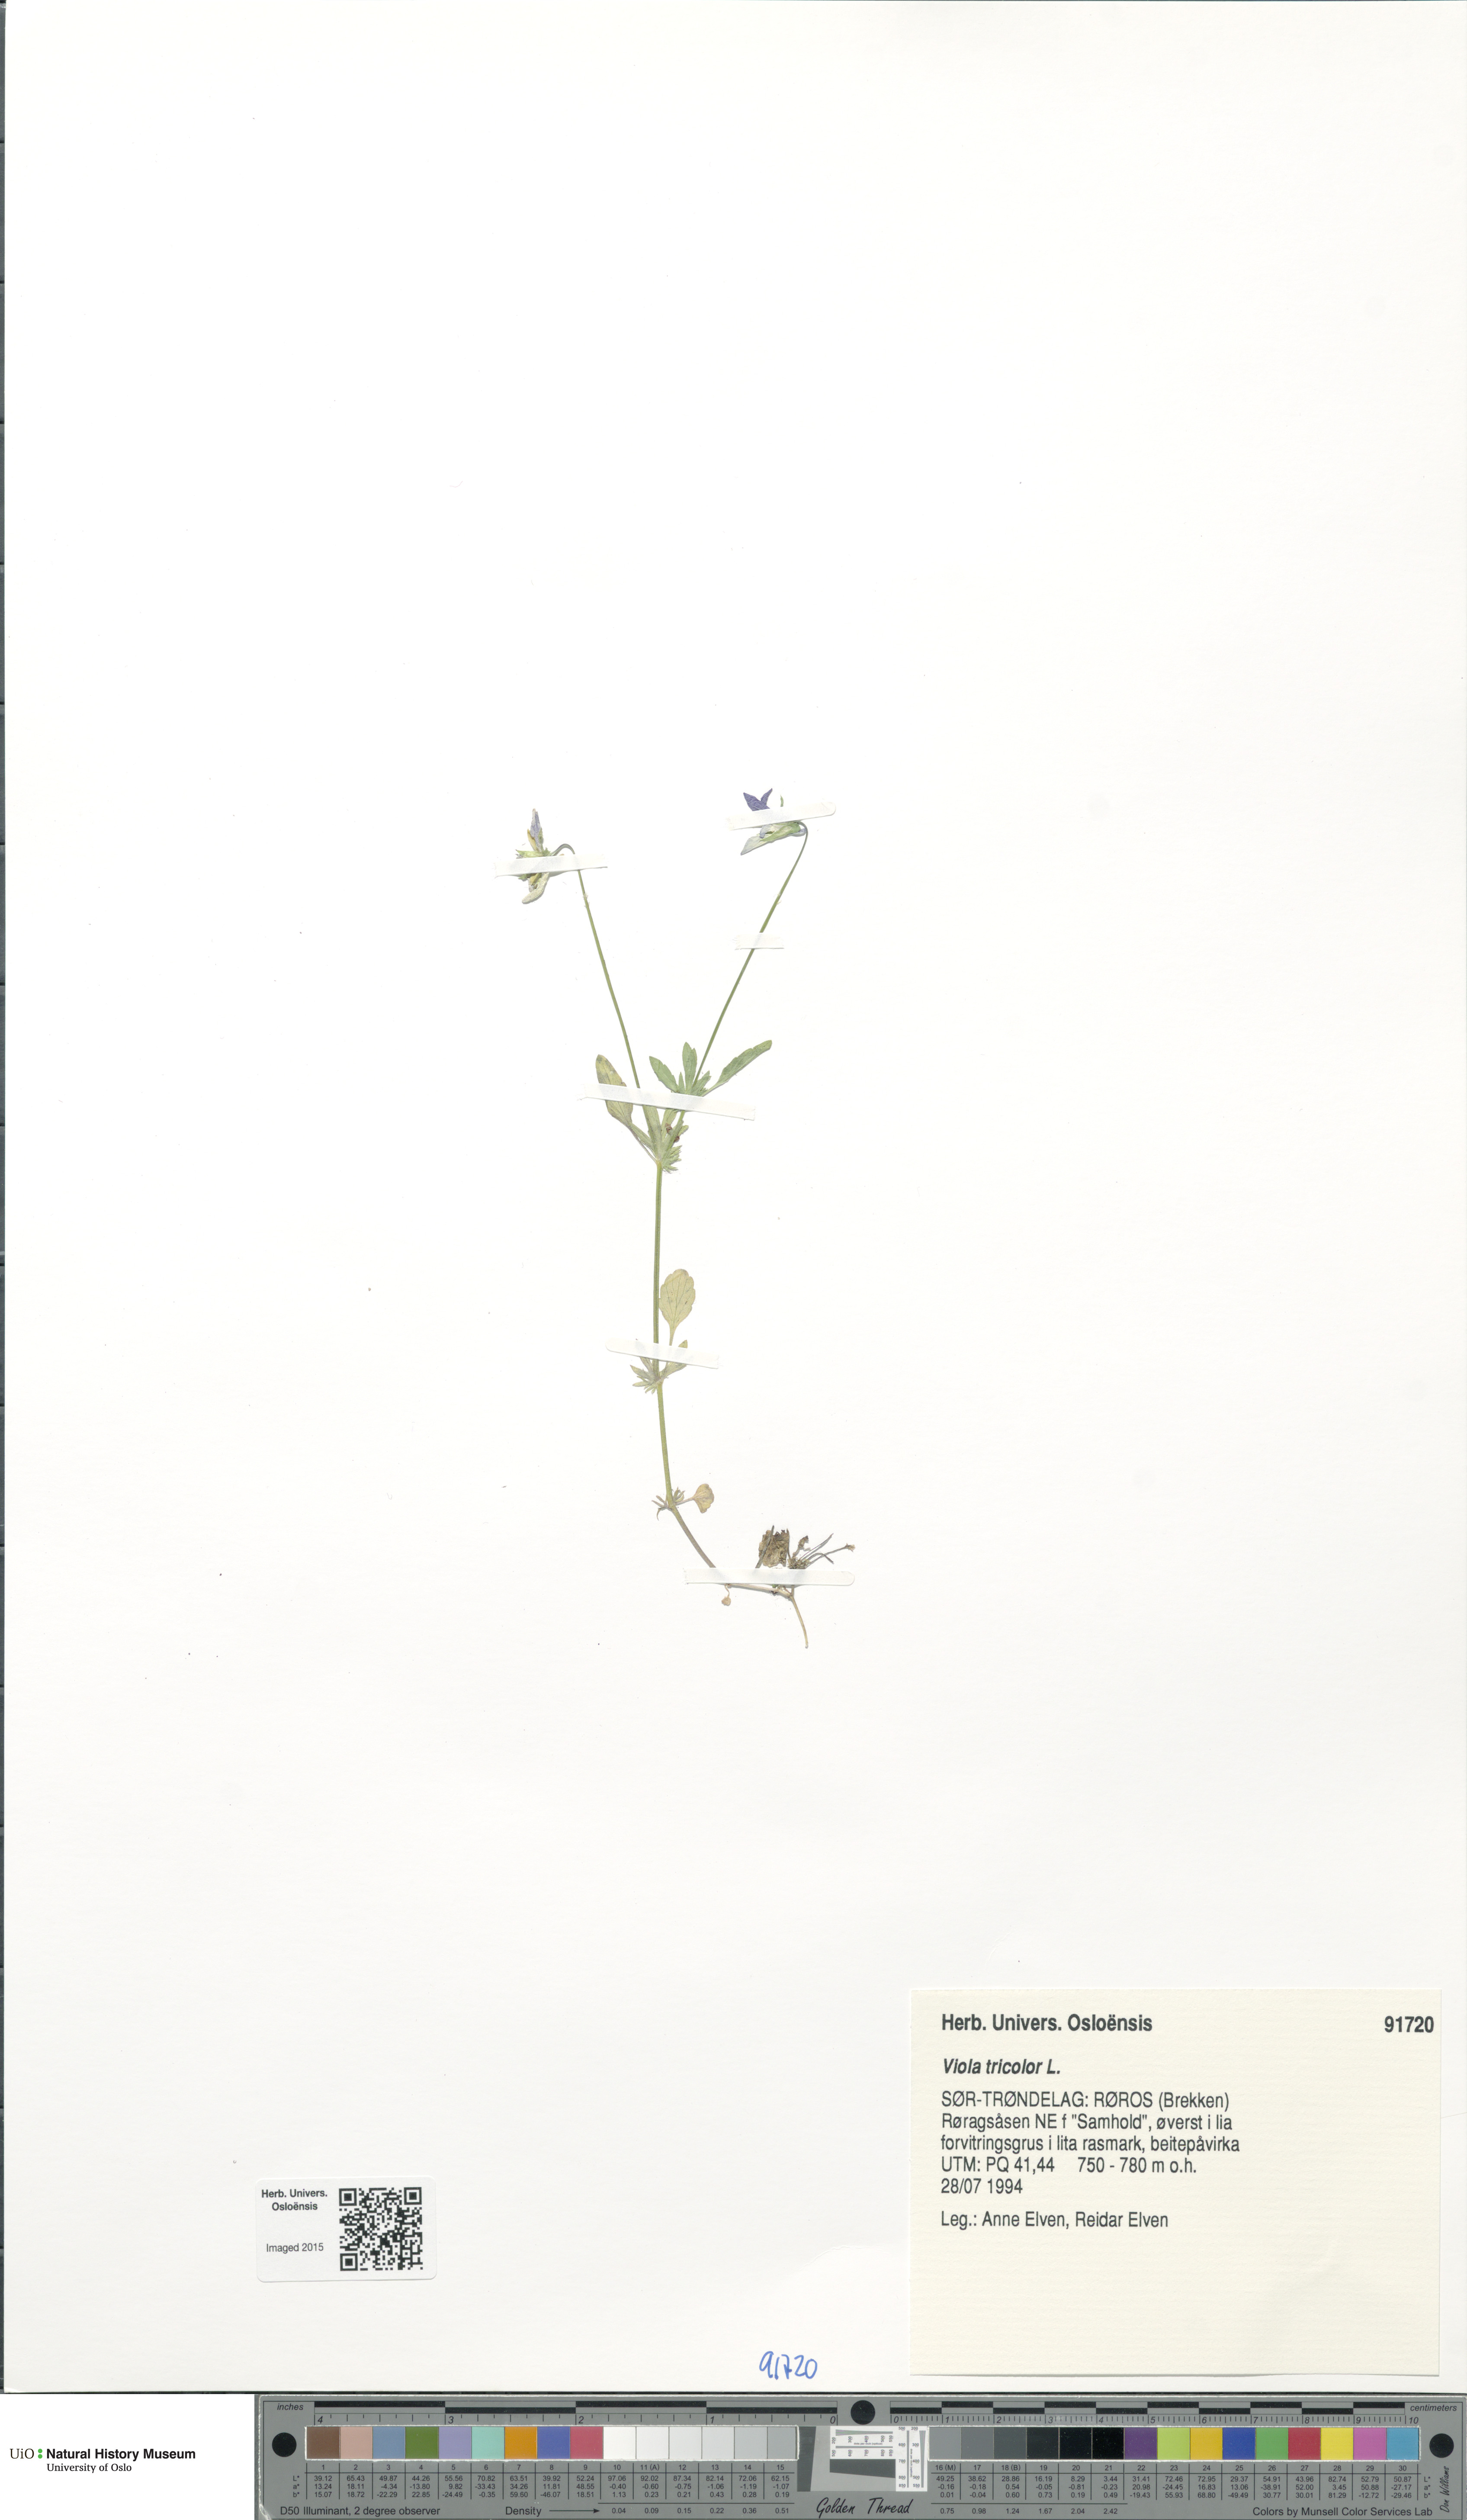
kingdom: Plantae
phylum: Tracheophyta
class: Magnoliopsida
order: Malpighiales
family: Violaceae
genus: Viola
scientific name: Viola tricolor
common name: Pansy
